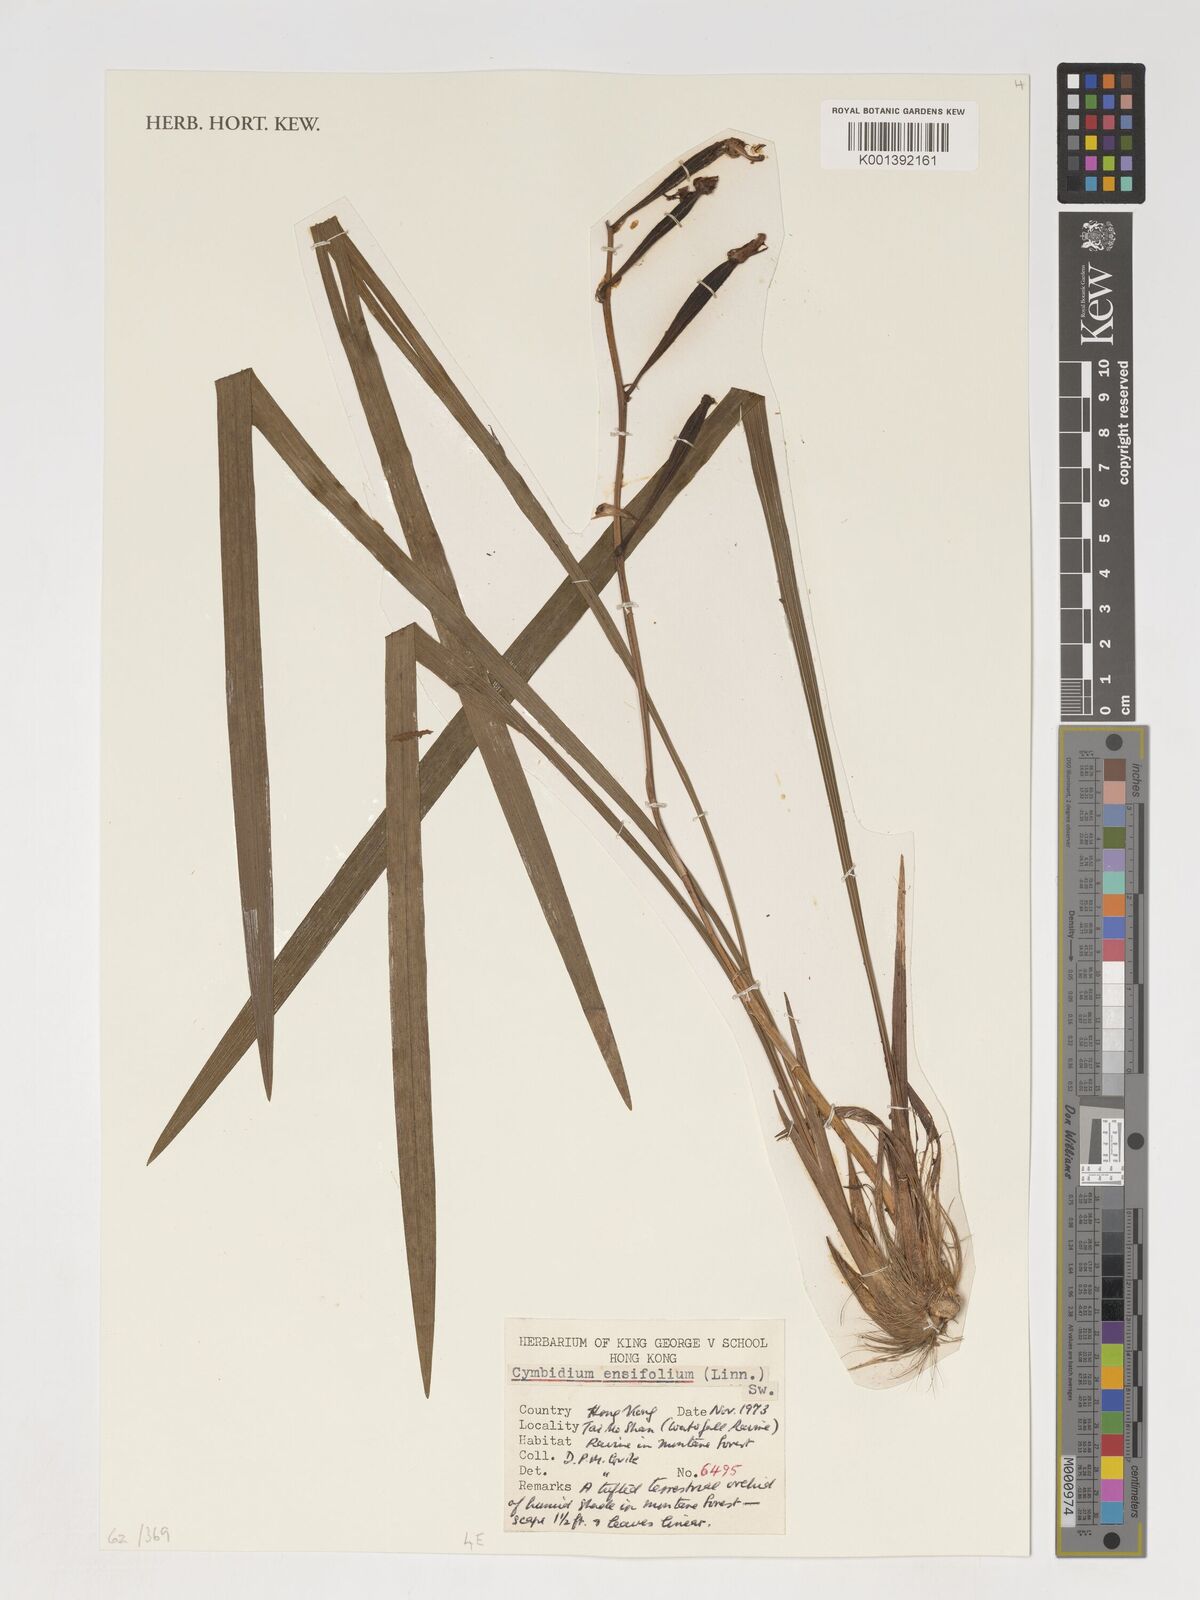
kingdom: Plantae
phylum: Tracheophyta
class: Liliopsida
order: Asparagales
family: Orchidaceae
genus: Cymbidium
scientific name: Cymbidium ensifolium
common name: Fukien-orchid
